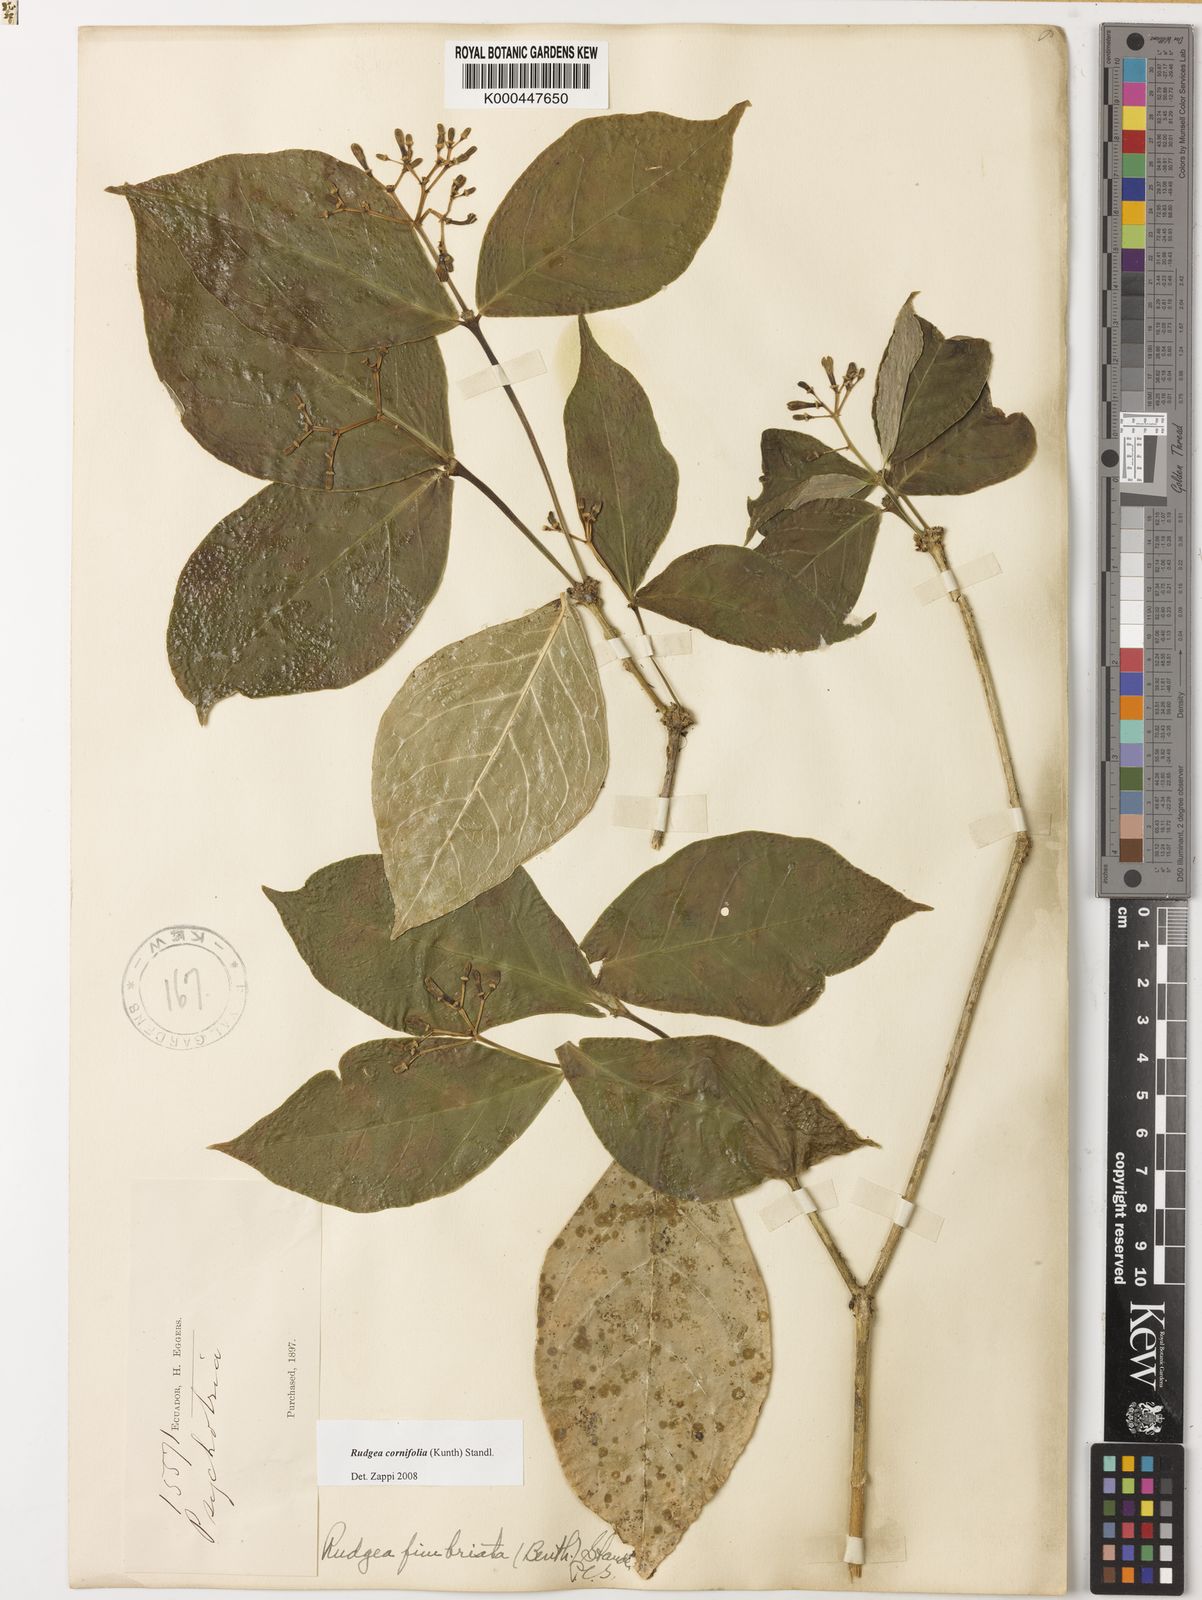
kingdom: Plantae
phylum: Tracheophyta
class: Magnoliopsida
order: Gentianales
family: Rubiaceae
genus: Rudgea
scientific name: Rudgea cornifolia
